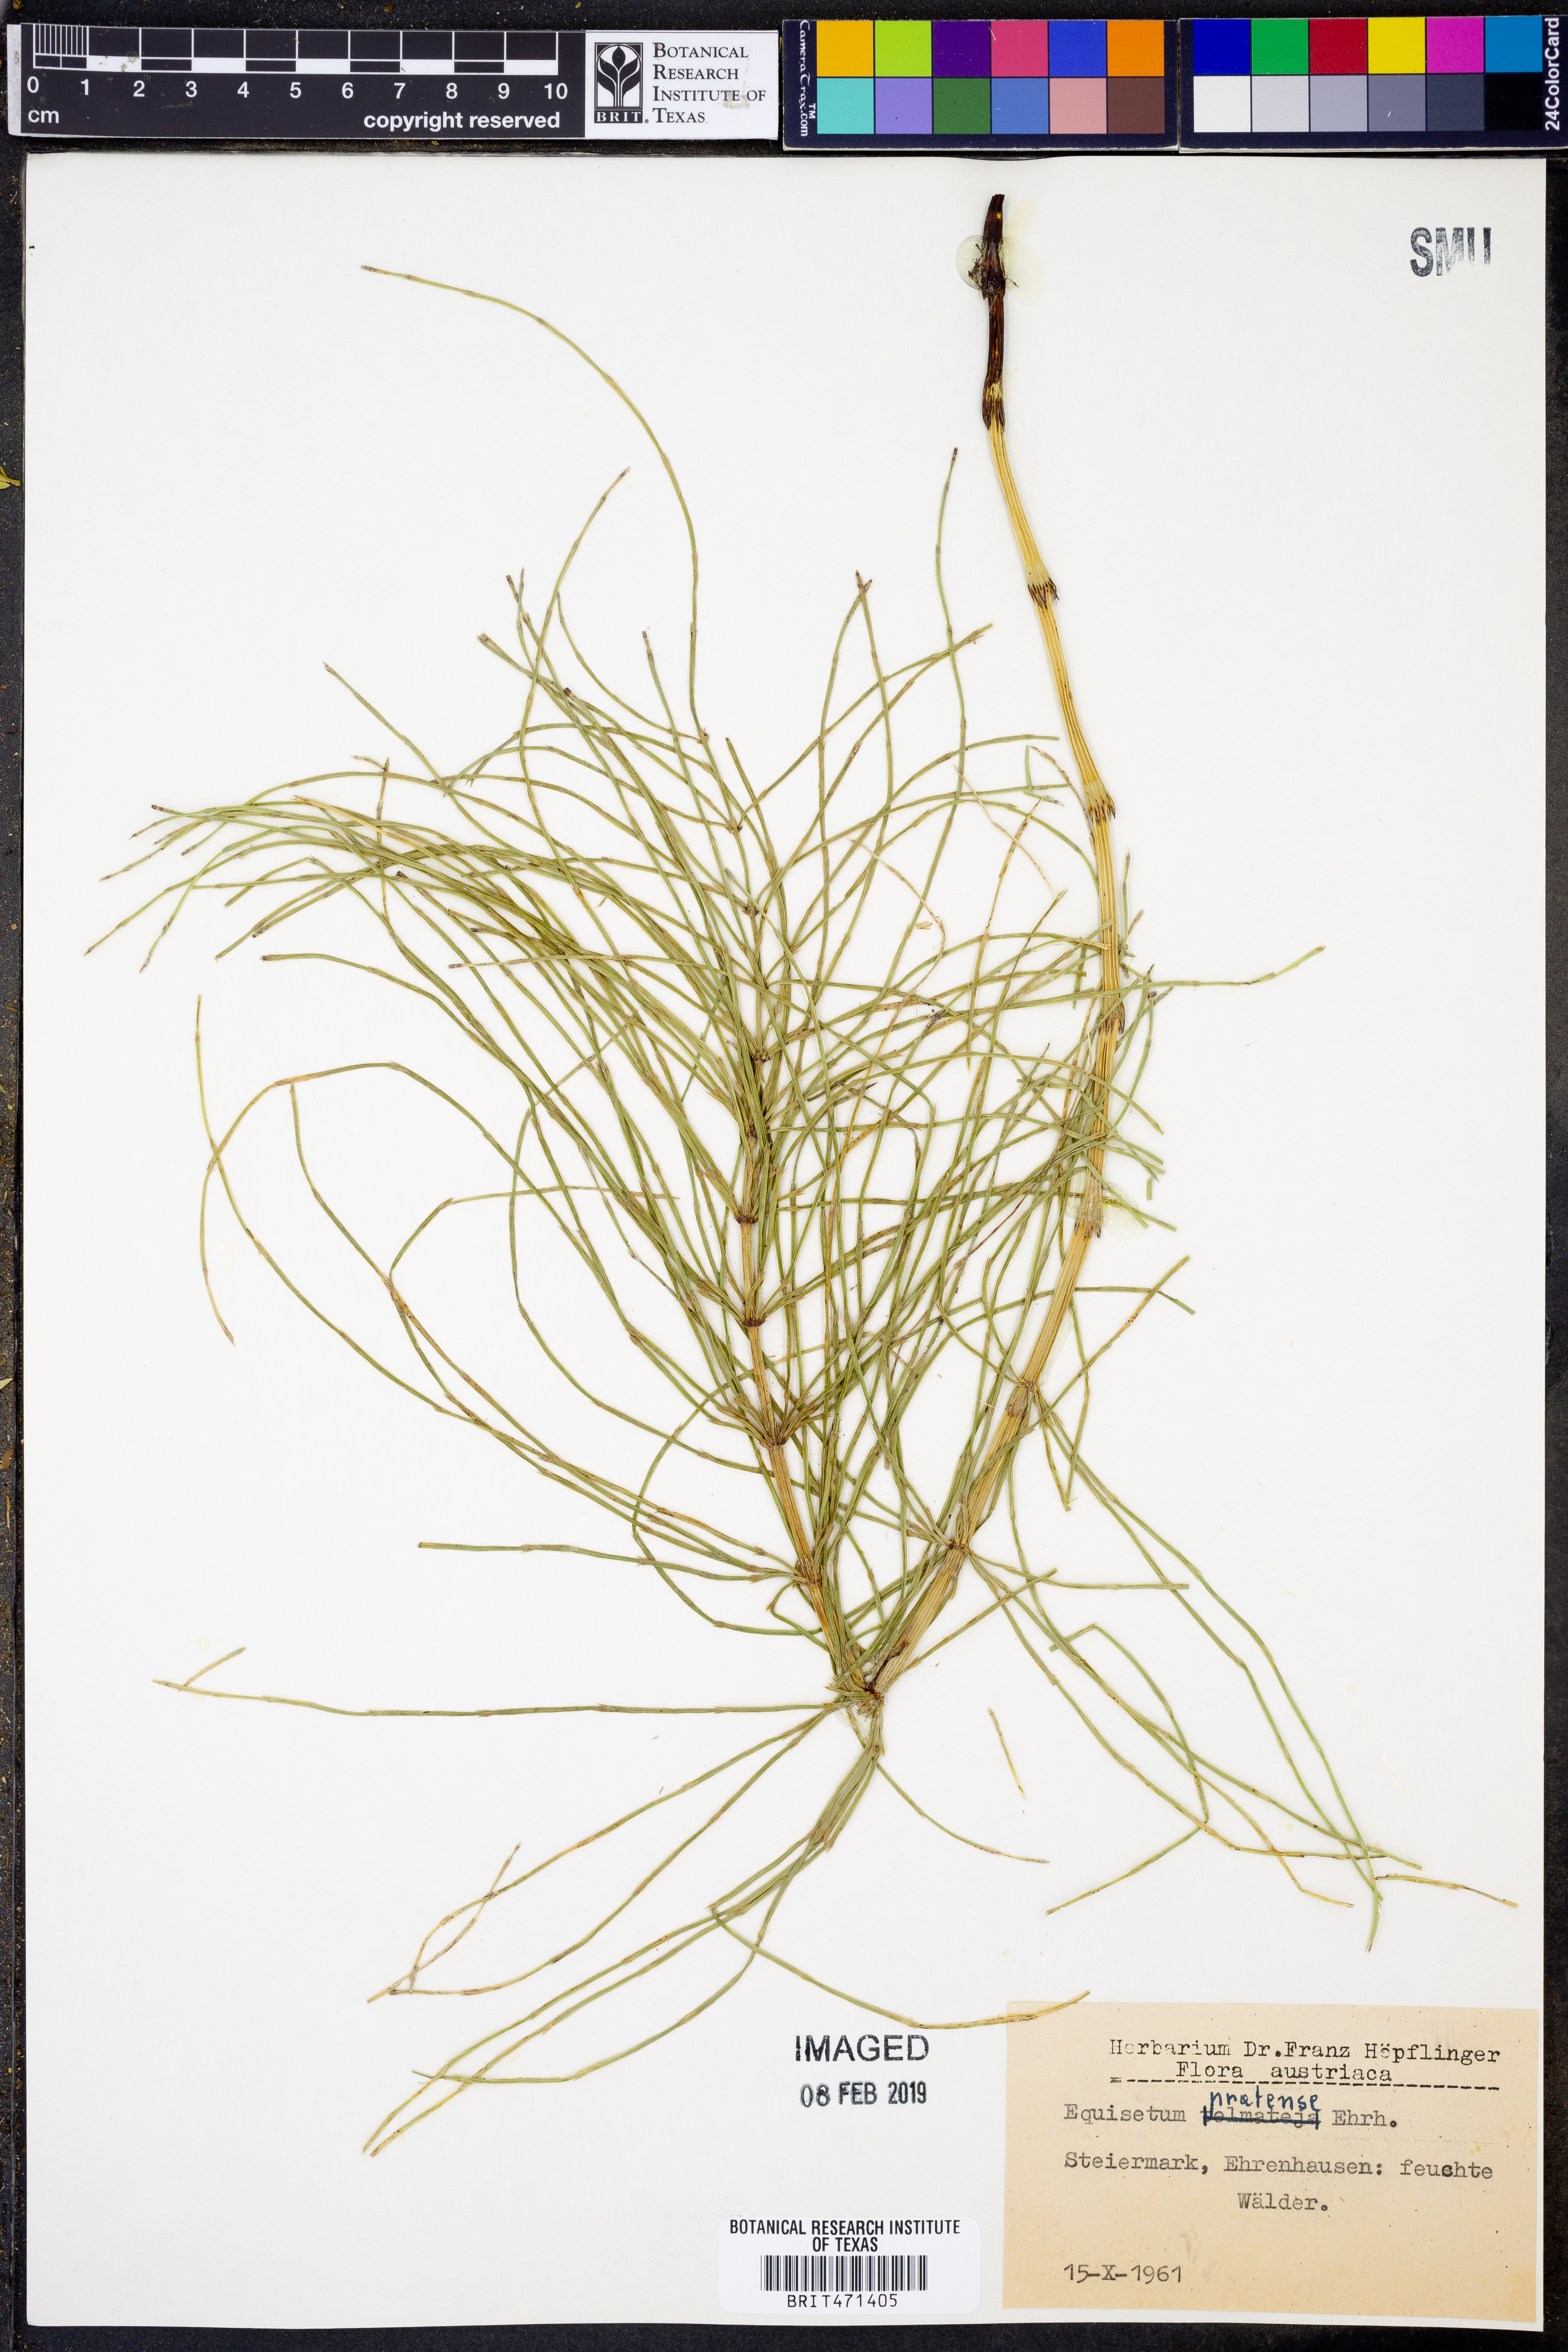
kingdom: Plantae
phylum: Tracheophyta
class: Polypodiopsida
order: Equisetales
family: Equisetaceae
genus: Equisetum
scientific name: Equisetum pratense
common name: Meadow horsetail
